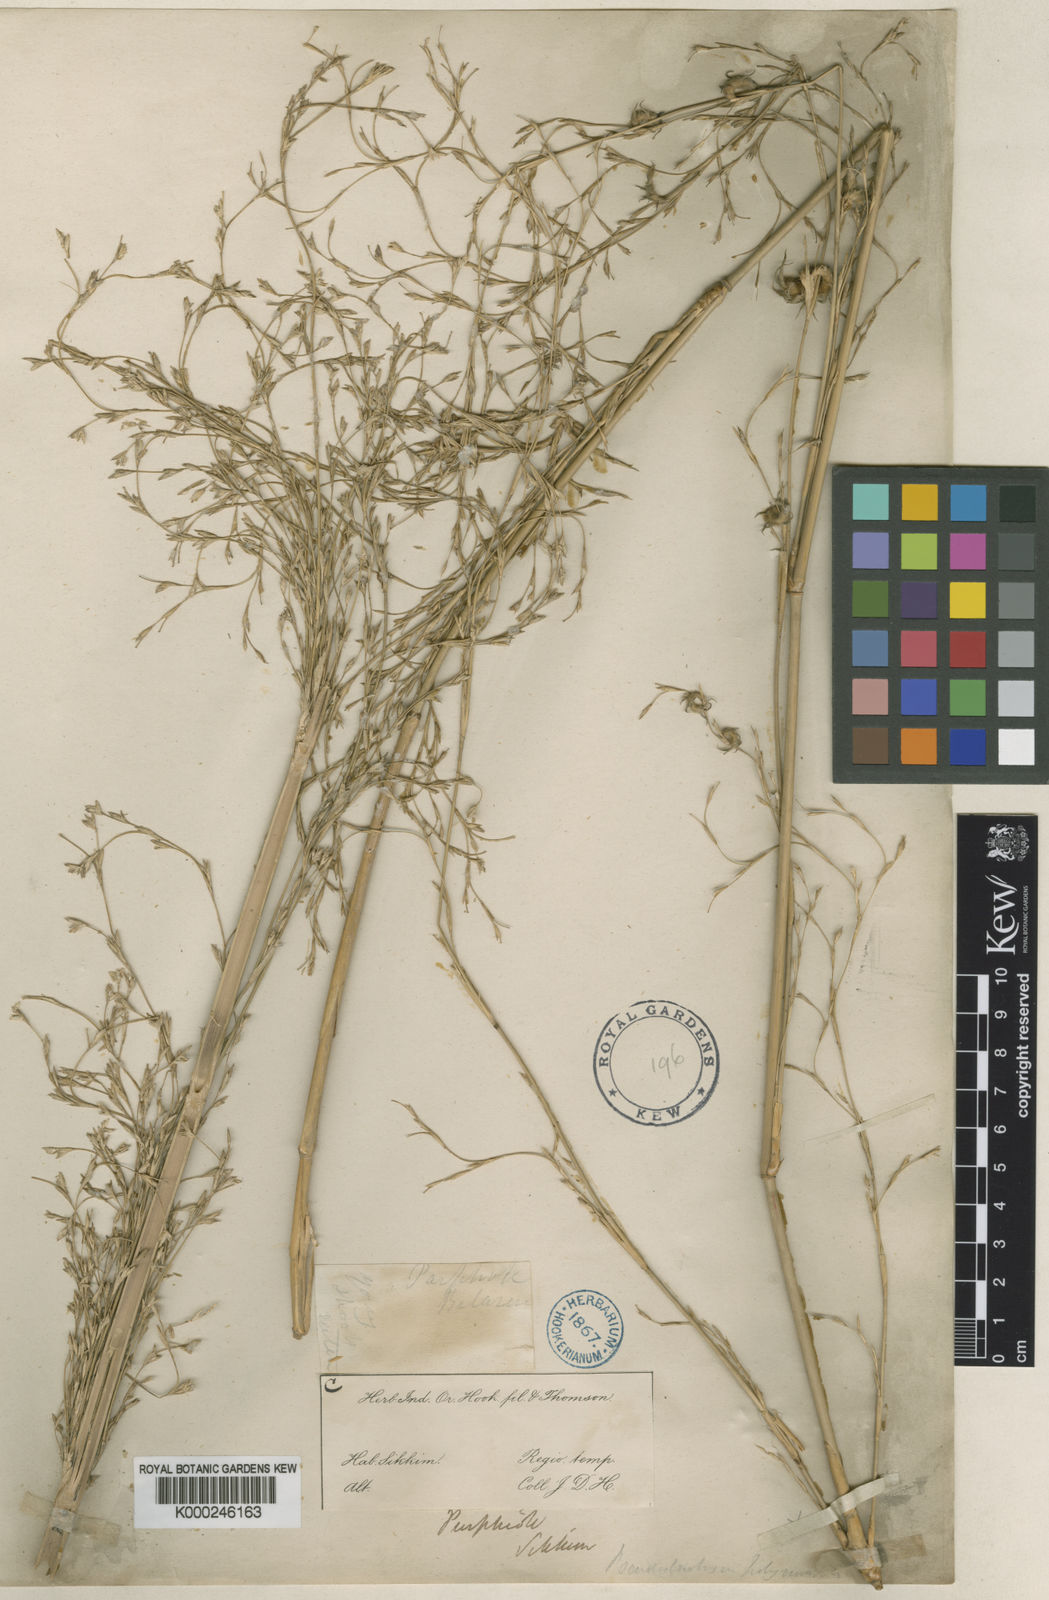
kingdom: Plantae
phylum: Tracheophyta
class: Liliopsida
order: Poales
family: Poaceae
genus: Pseudostachyum
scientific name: Pseudostachyum polymorphum
